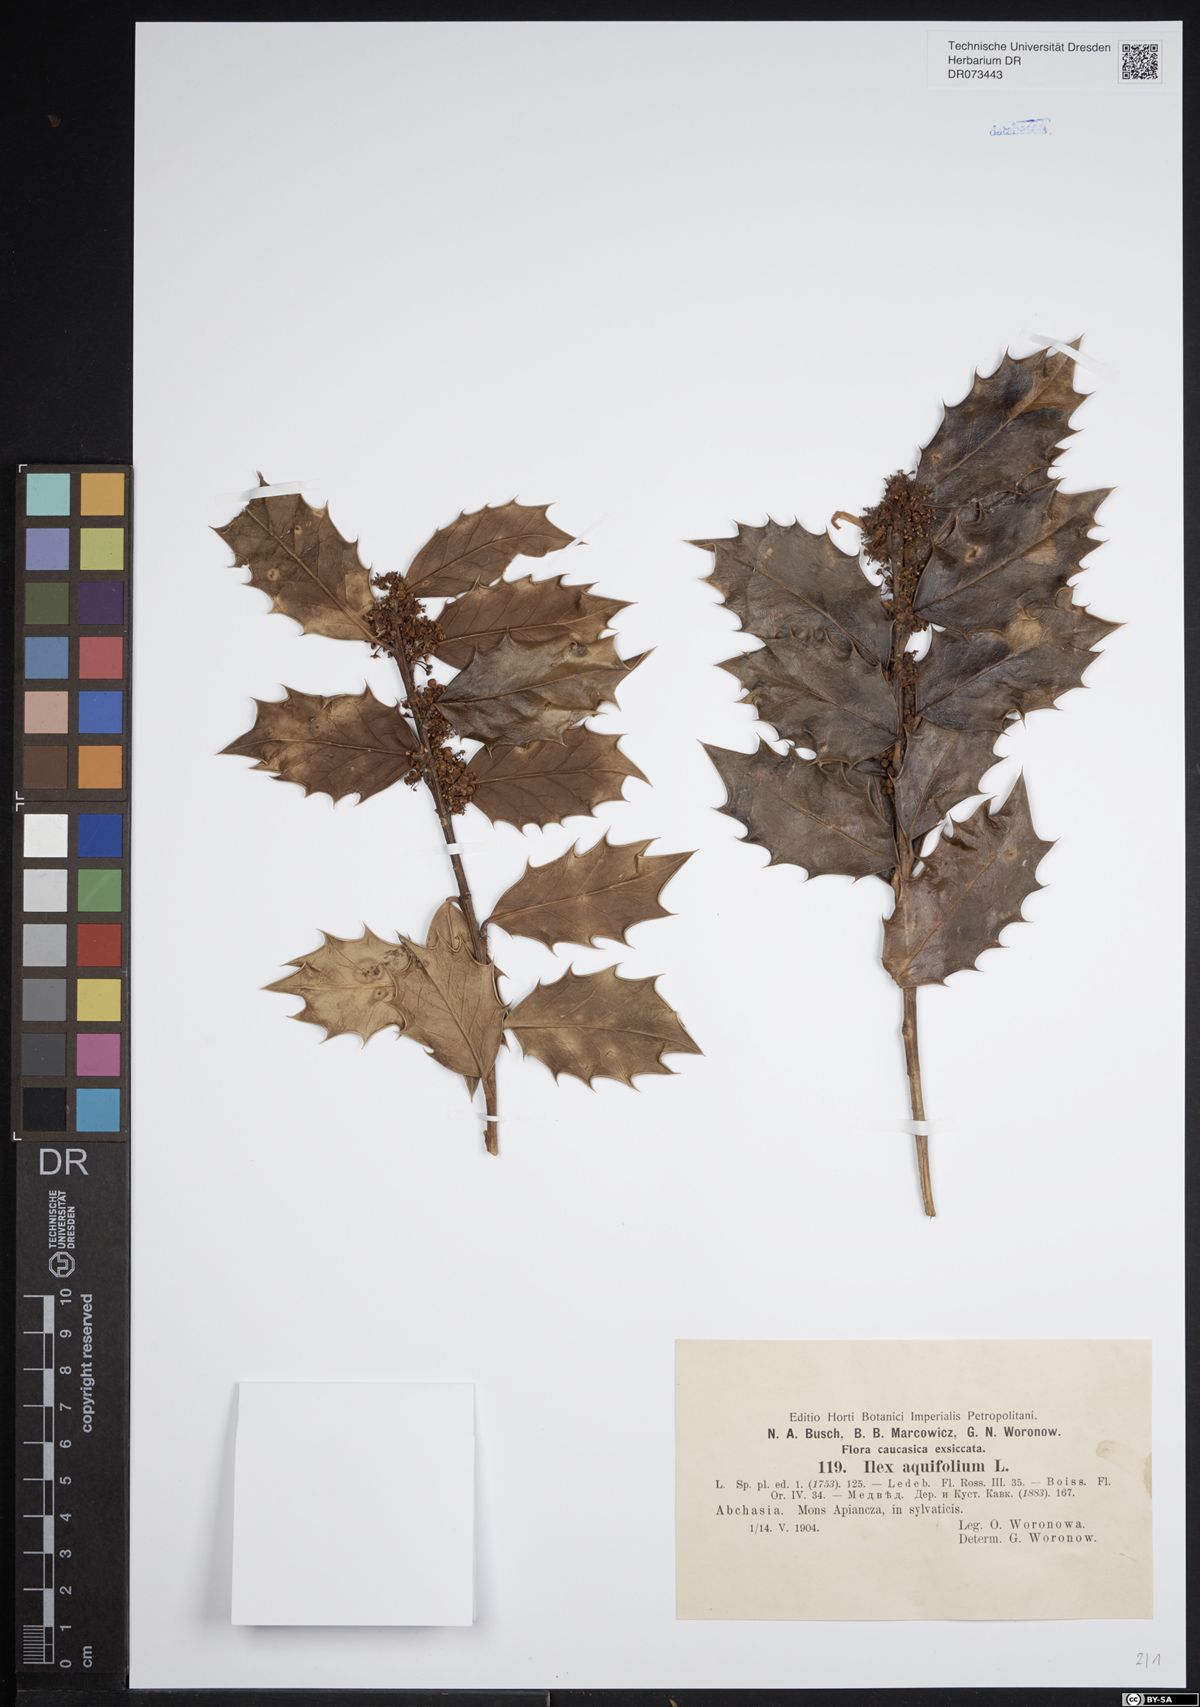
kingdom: Plantae
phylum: Tracheophyta
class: Magnoliopsida
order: Aquifoliales
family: Aquifoliaceae
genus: Ilex
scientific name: Ilex aquifolium
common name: English holly
